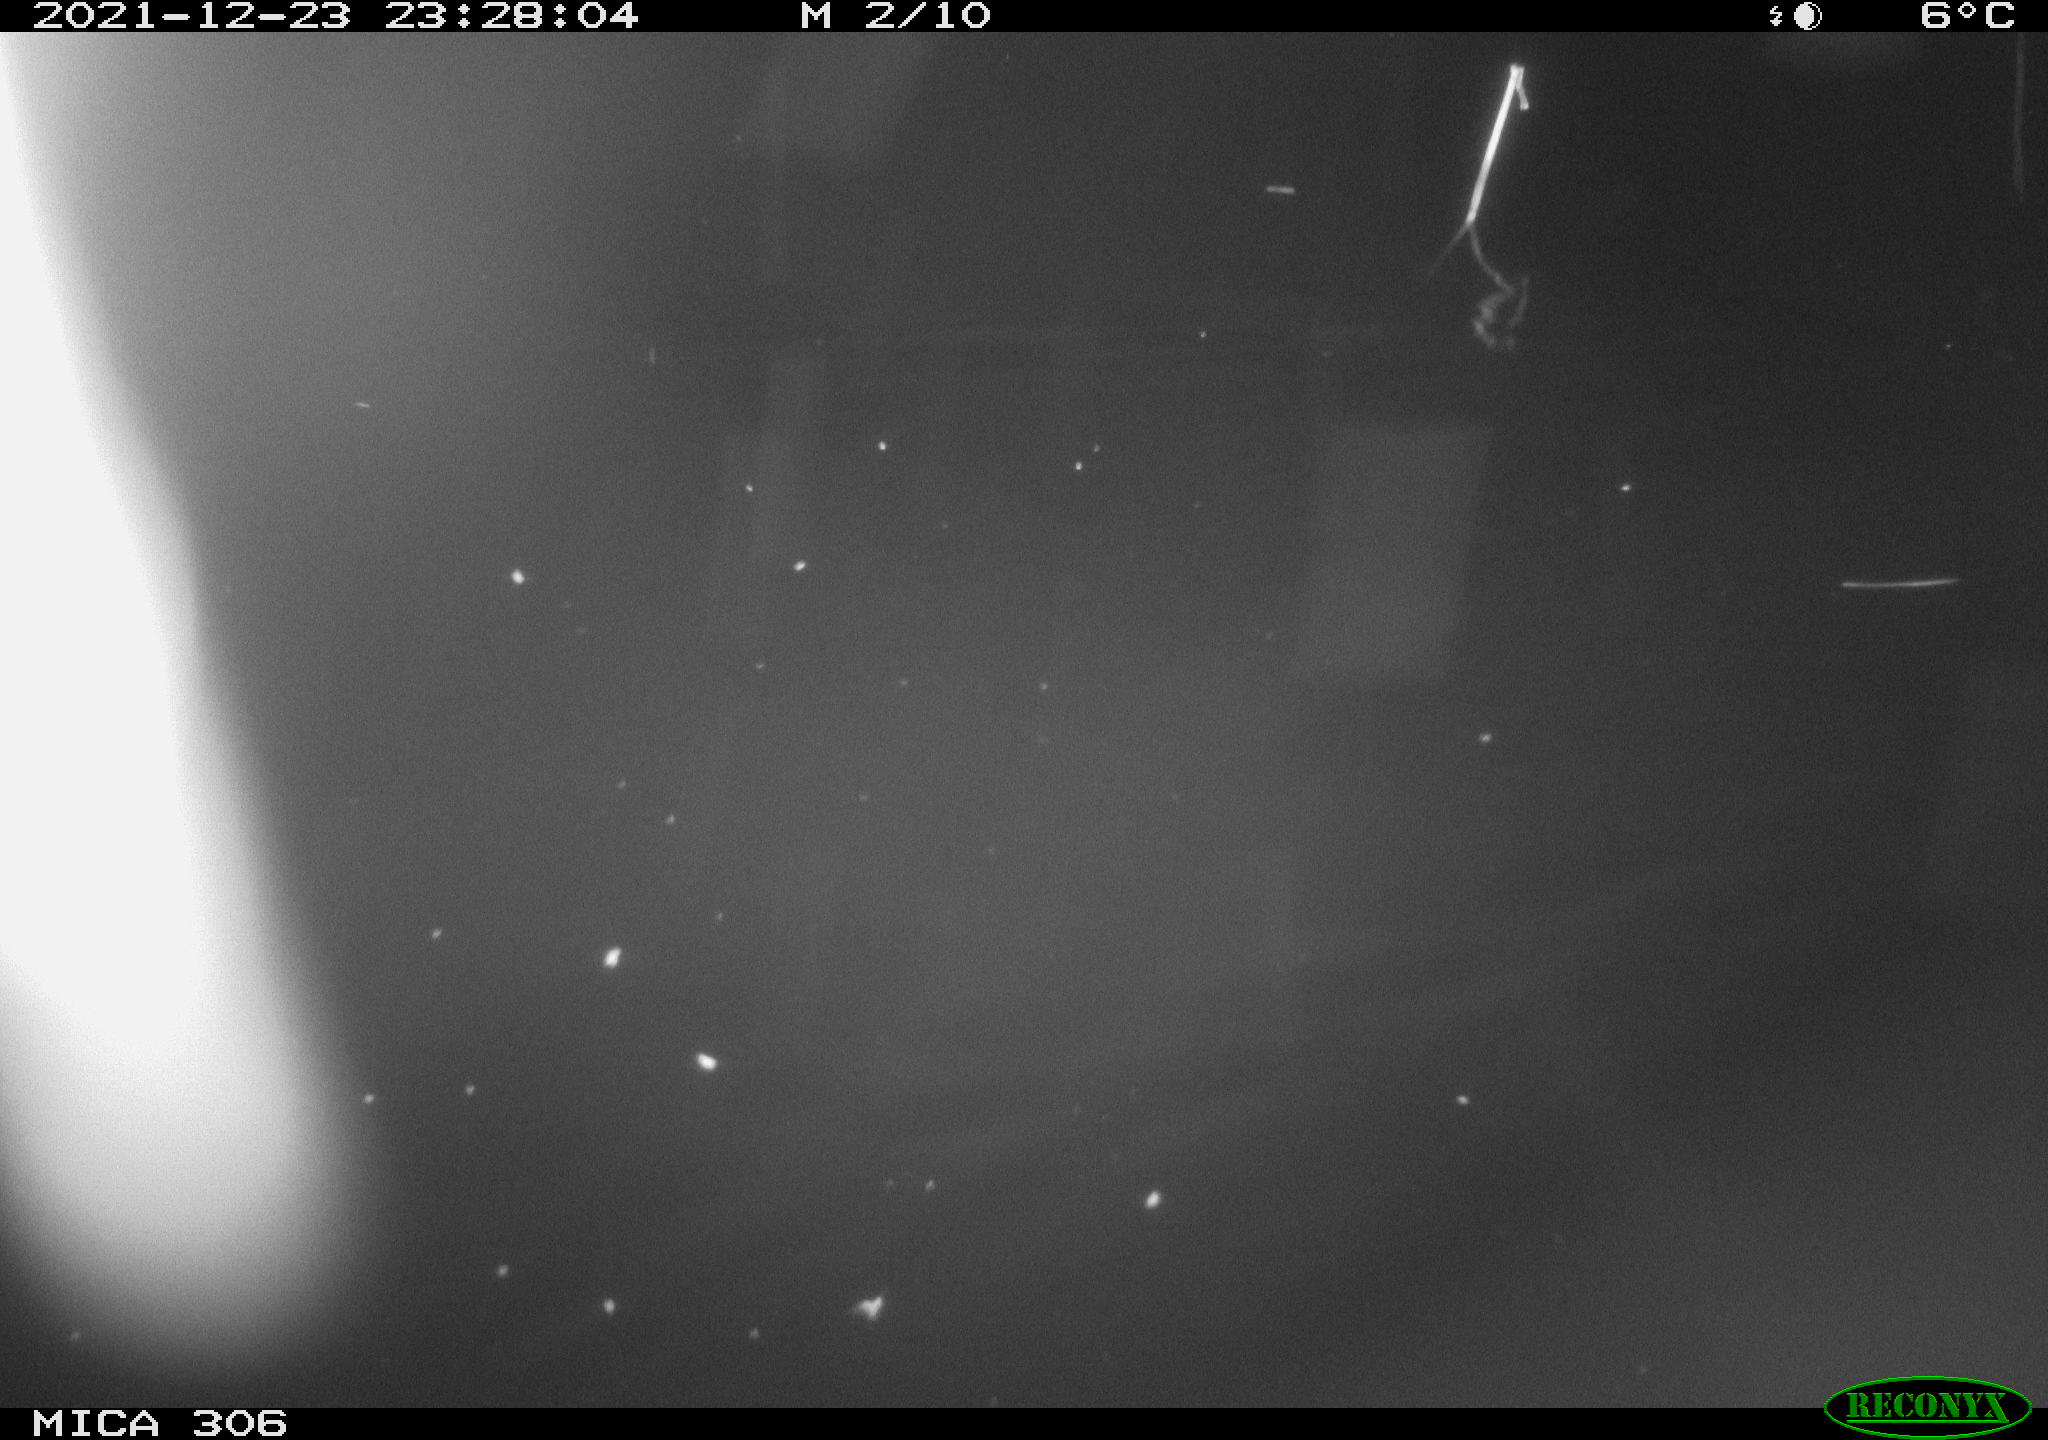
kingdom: Animalia
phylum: Chordata
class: Mammalia
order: Rodentia
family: Muridae
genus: Rattus
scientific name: Rattus norvegicus
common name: Brown rat
